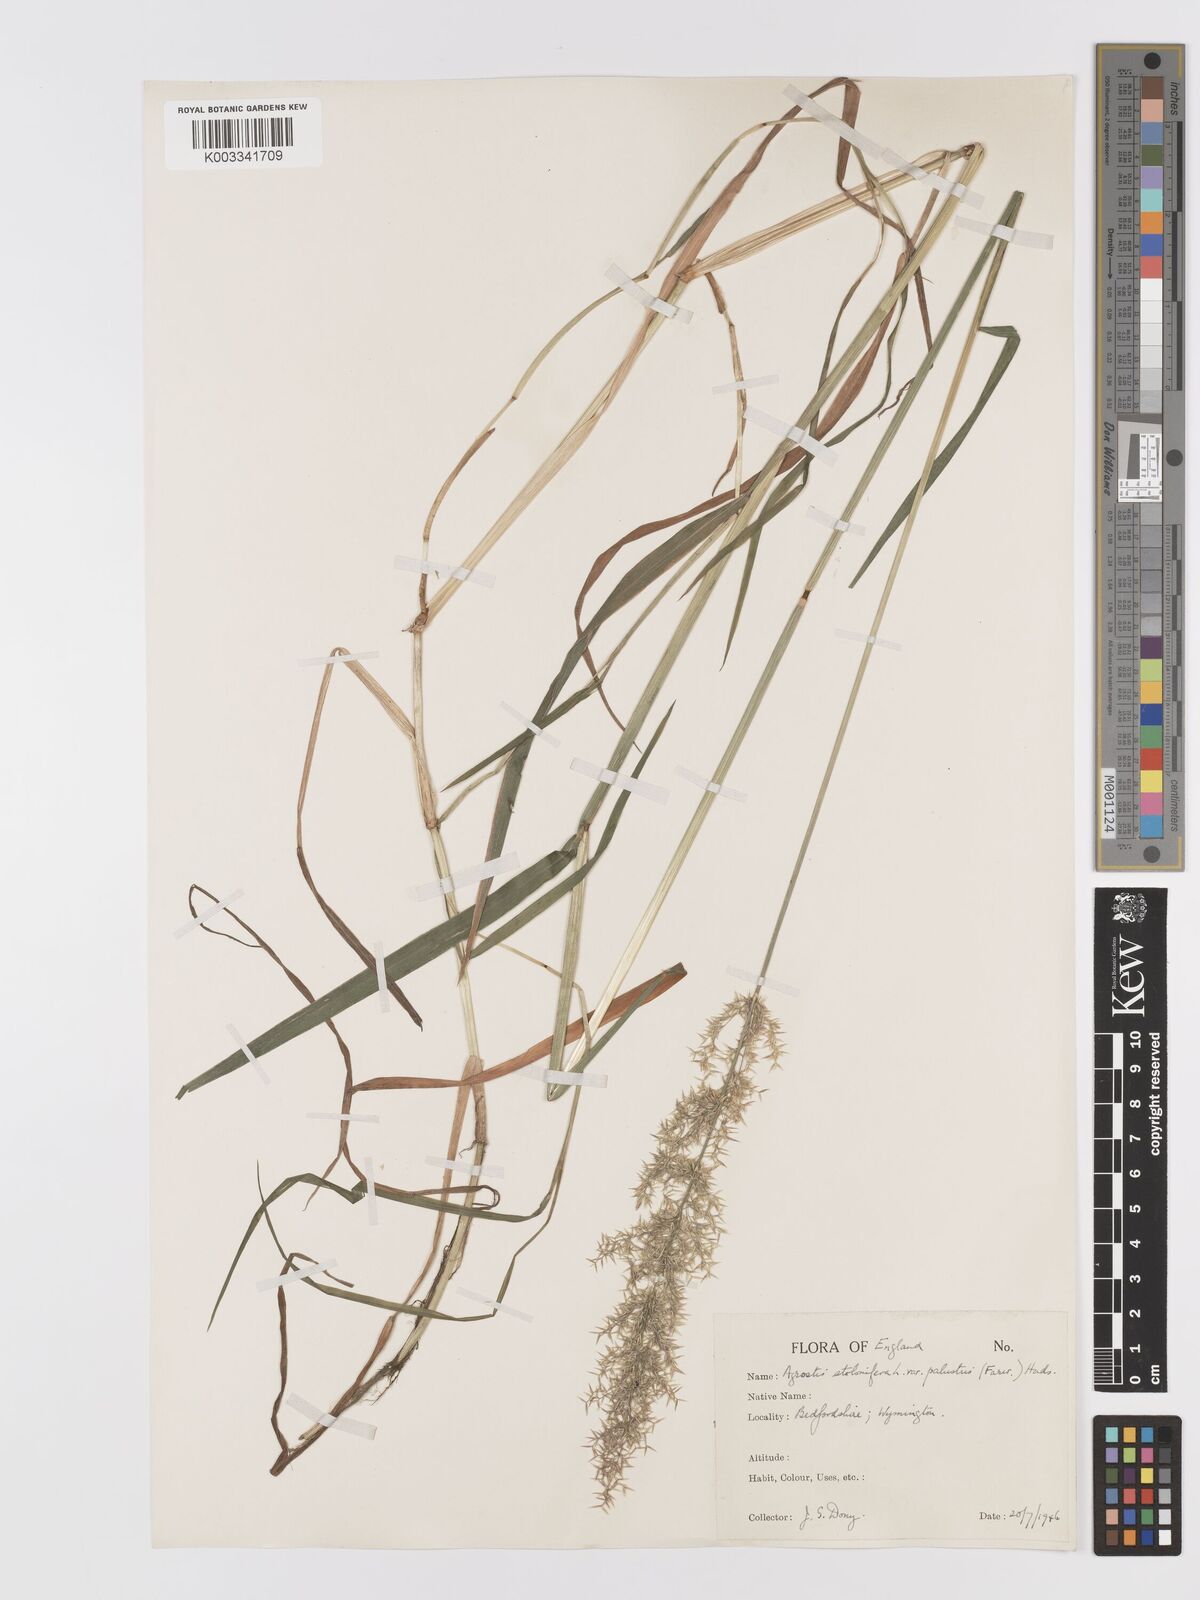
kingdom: Plantae
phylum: Tracheophyta
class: Liliopsida
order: Poales
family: Poaceae
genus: Agrostis
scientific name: Agrostis stolonifera
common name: Creeping bentgrass
